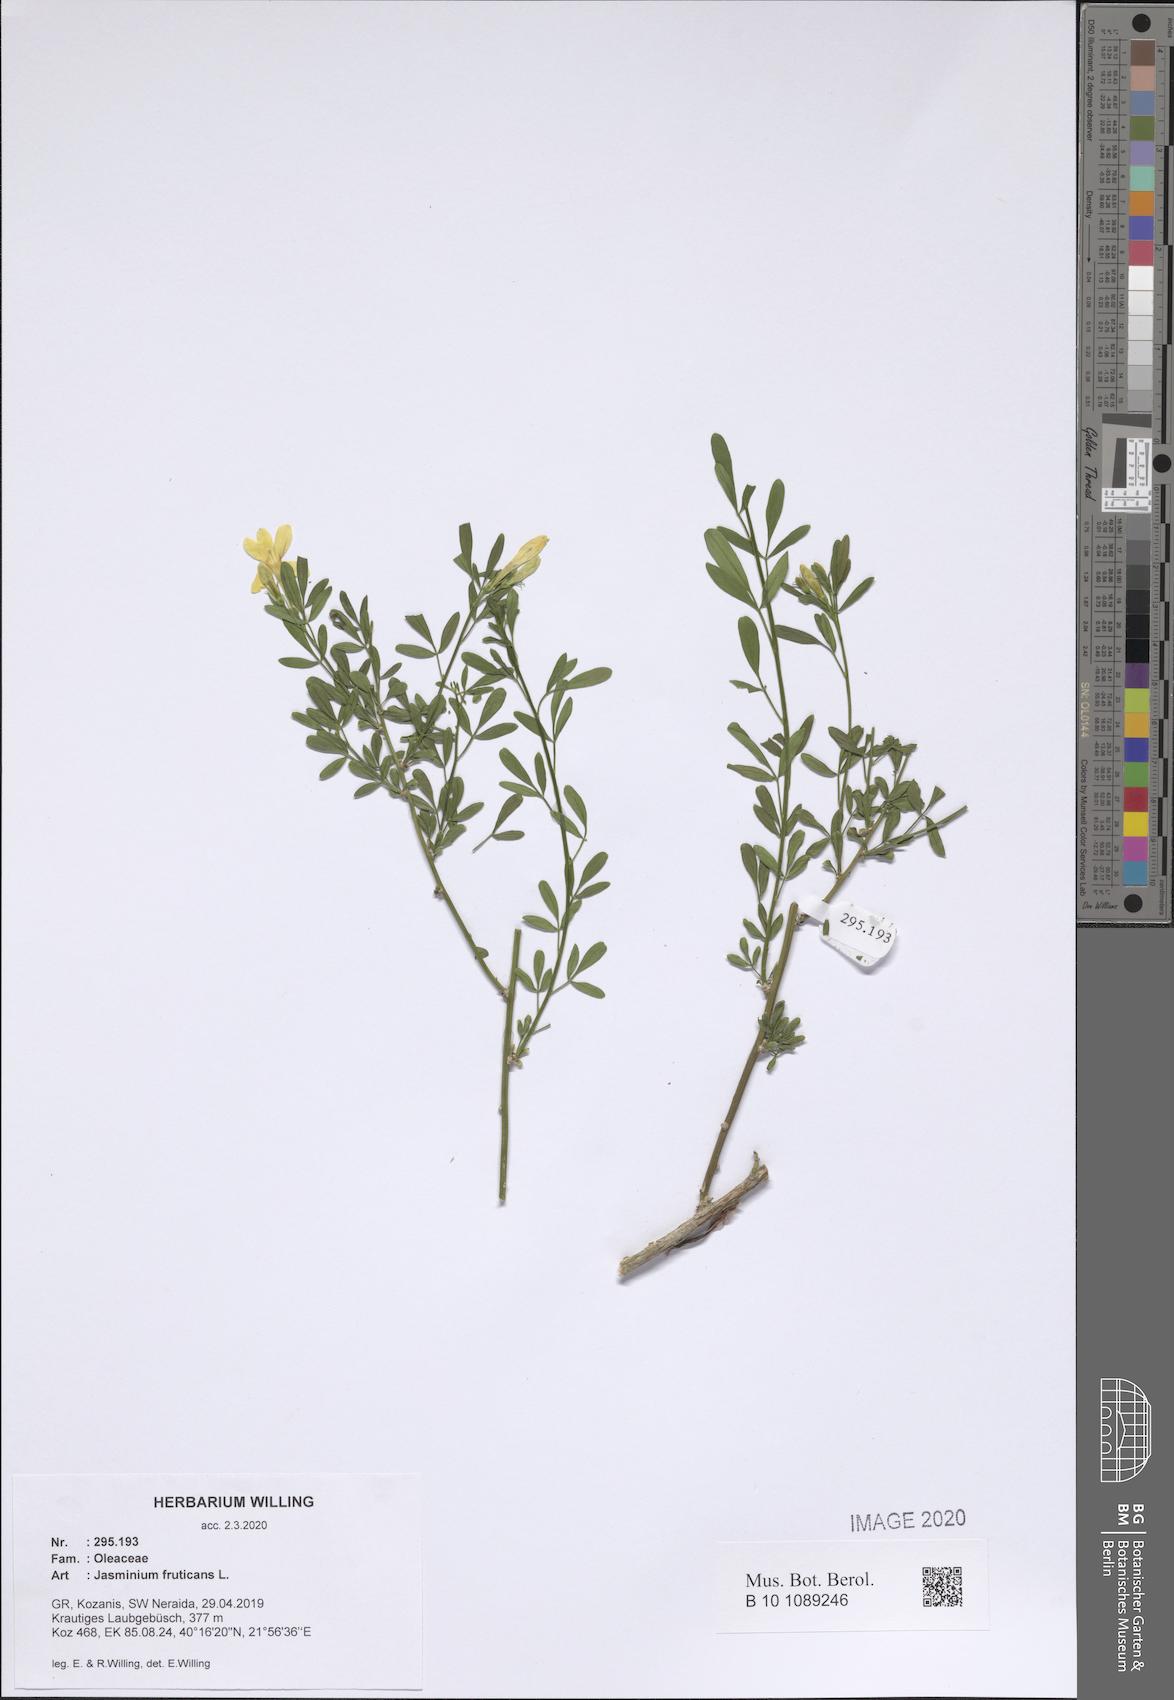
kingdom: Plantae
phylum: Tracheophyta
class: Magnoliopsida
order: Lamiales
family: Oleaceae
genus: Chrysojasminum
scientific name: Chrysojasminum fruticans
